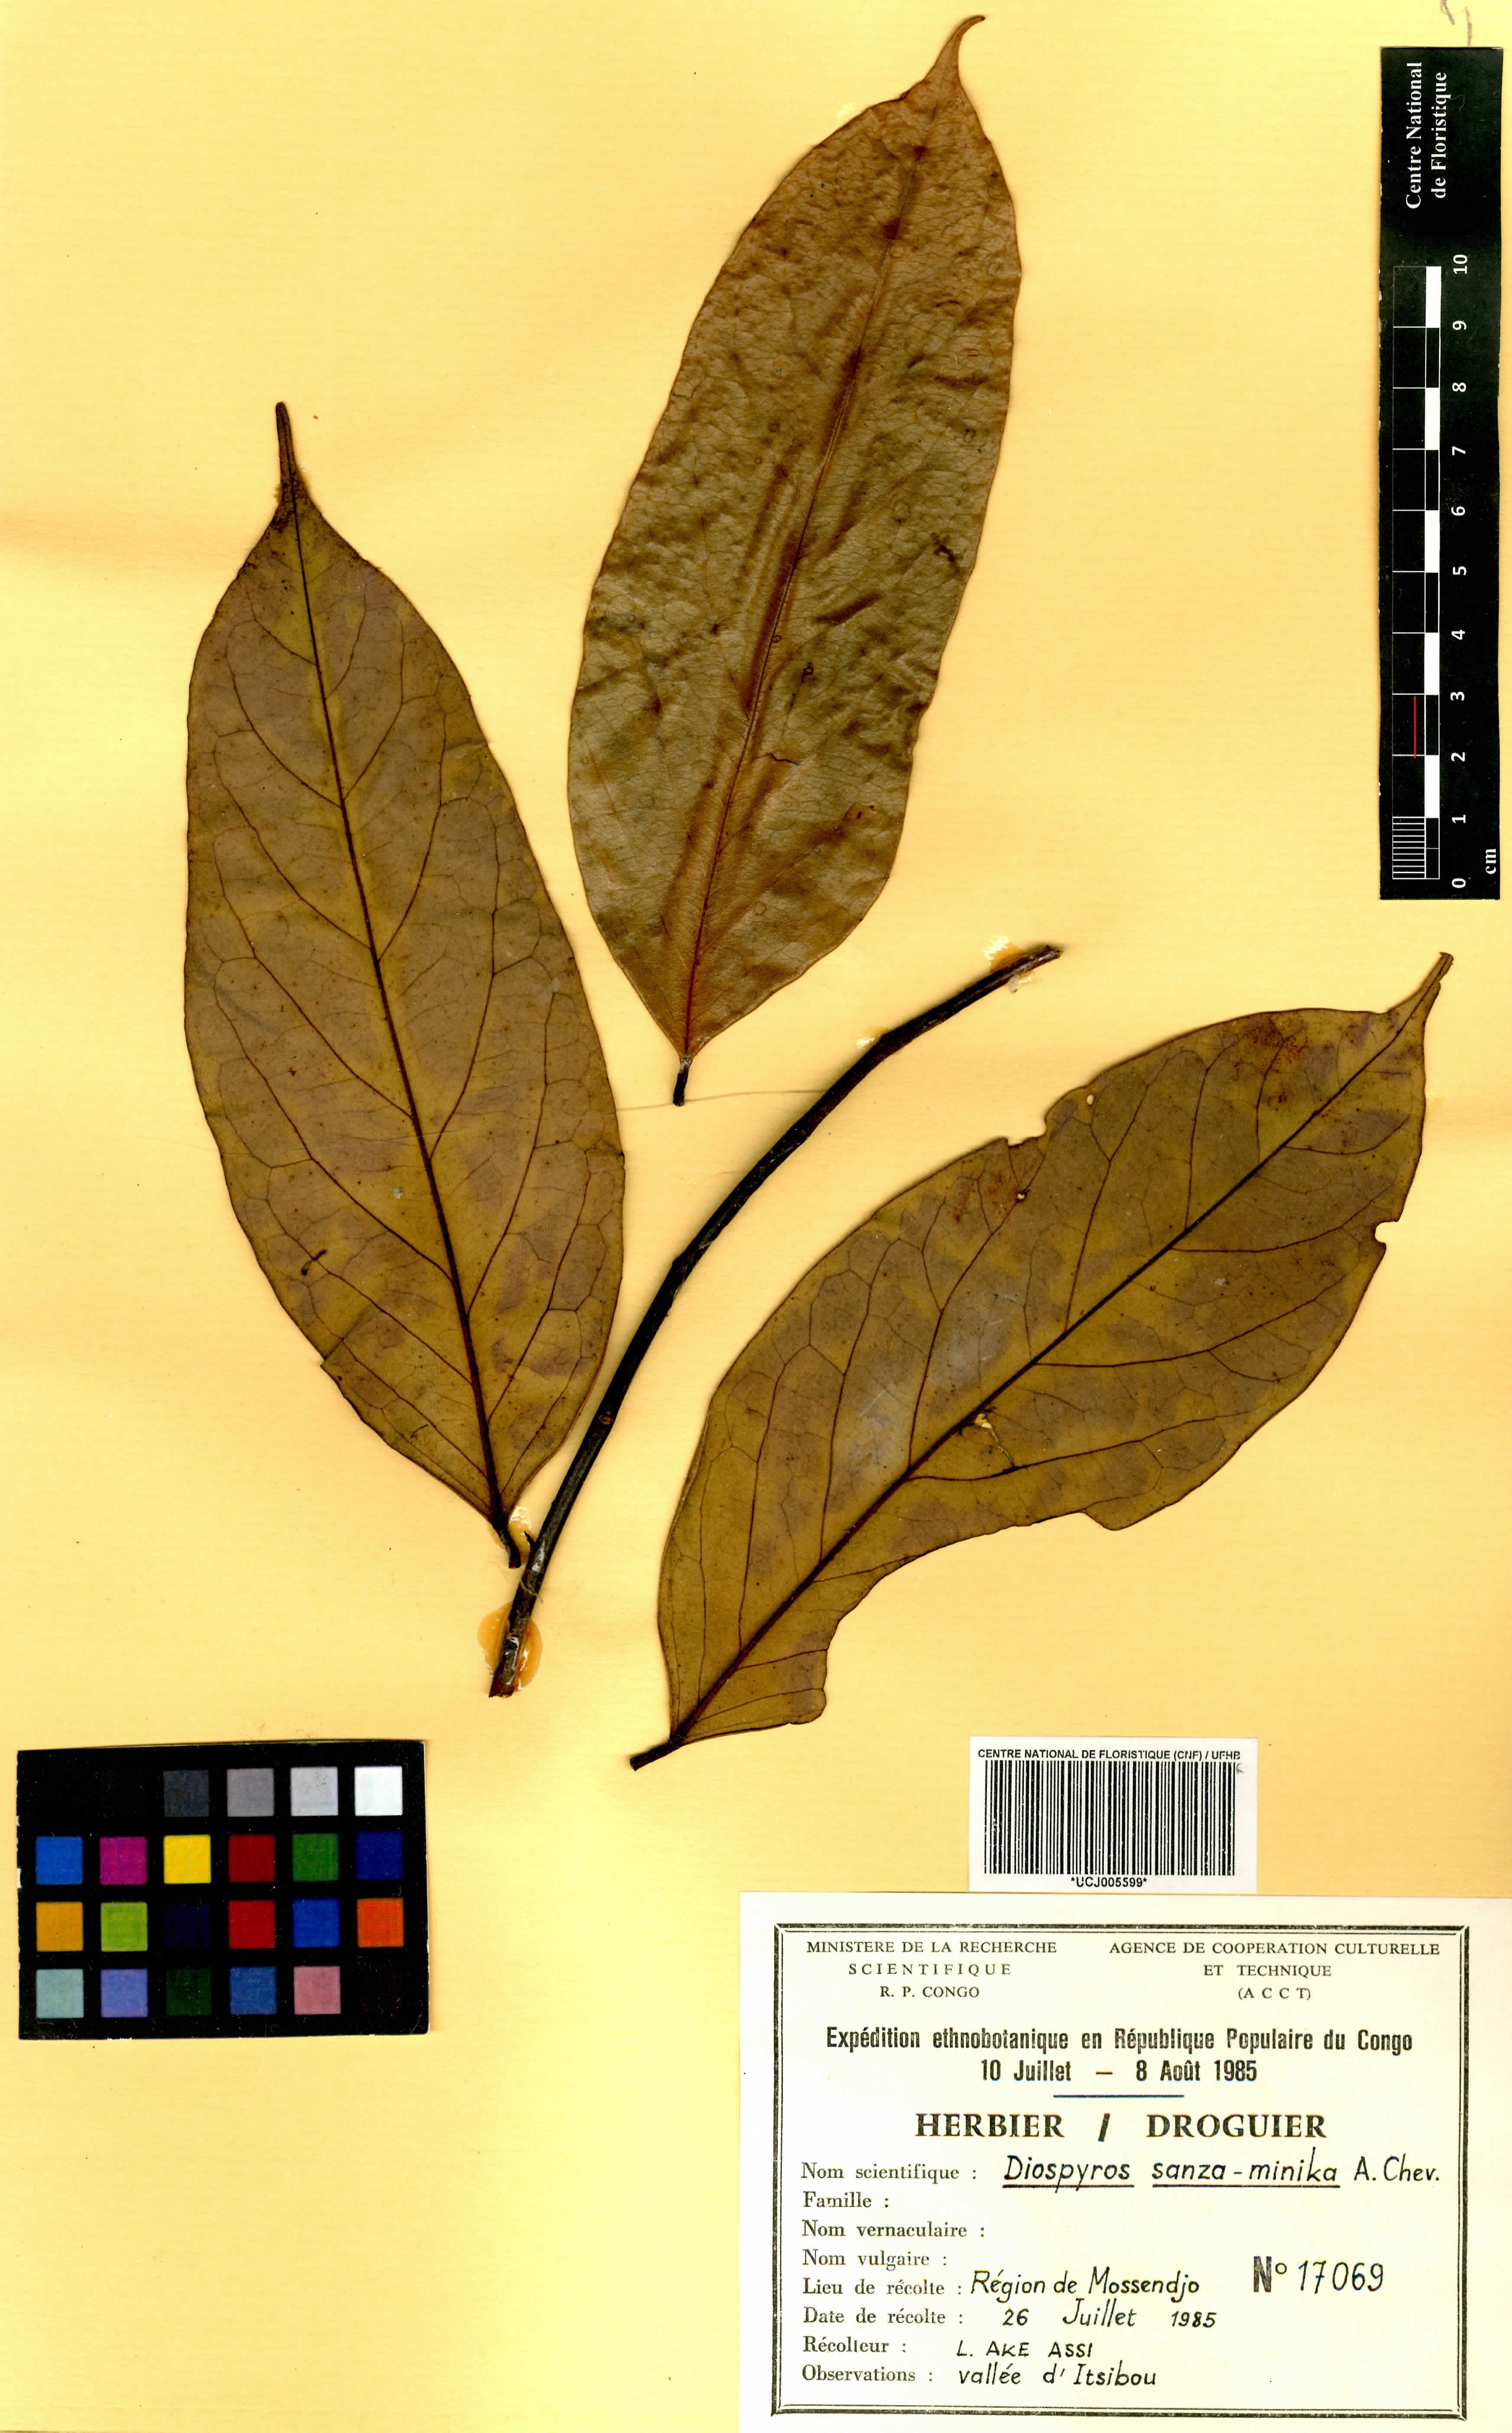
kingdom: Plantae
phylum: Tracheophyta
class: Magnoliopsida
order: Ericales
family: Ebenaceae
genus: Diospyros
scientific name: Diospyros sanza-minika
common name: Flint bark
